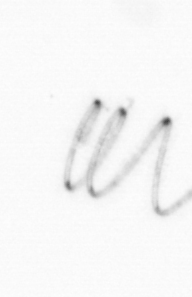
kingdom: Chromista
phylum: Ochrophyta
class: Bacillariophyceae
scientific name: Bacillariophyceae
